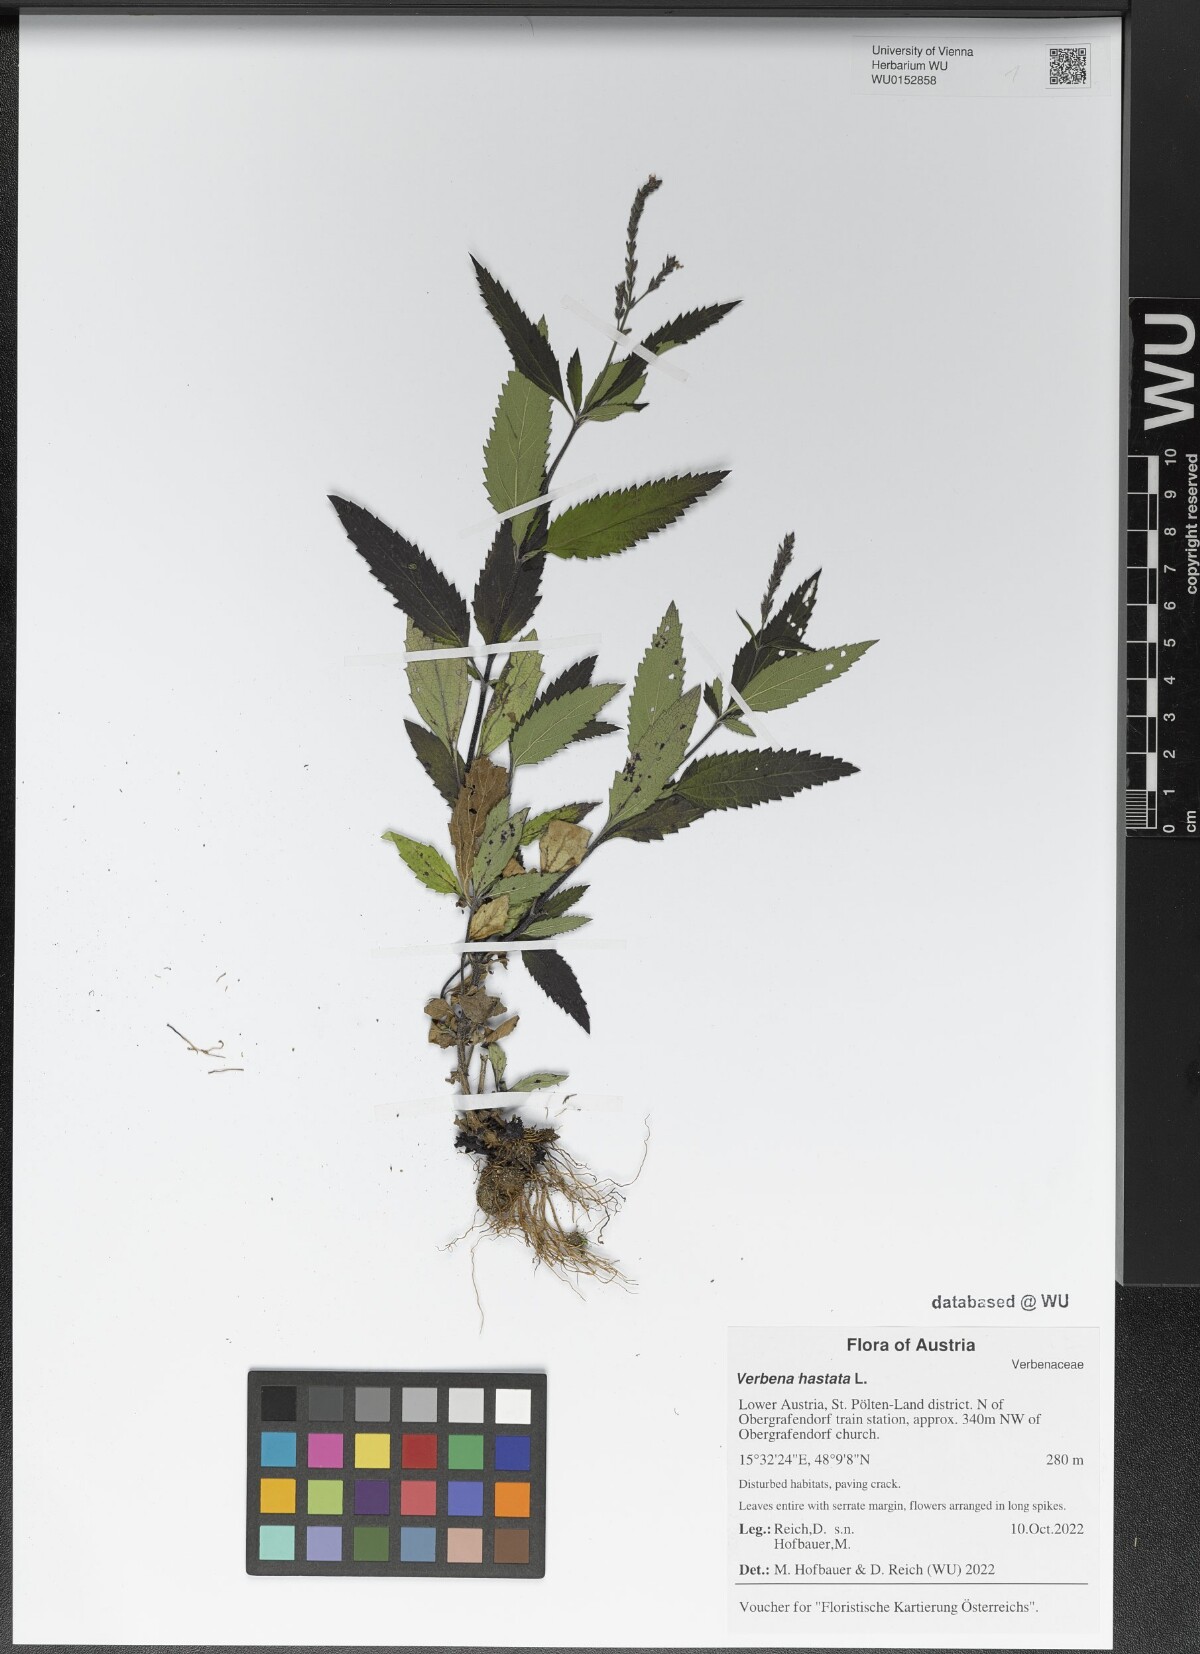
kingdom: Plantae
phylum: Tracheophyta
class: Magnoliopsida
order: Lamiales
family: Verbenaceae
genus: Verbena
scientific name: Verbena hastata
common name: American blue vervain
